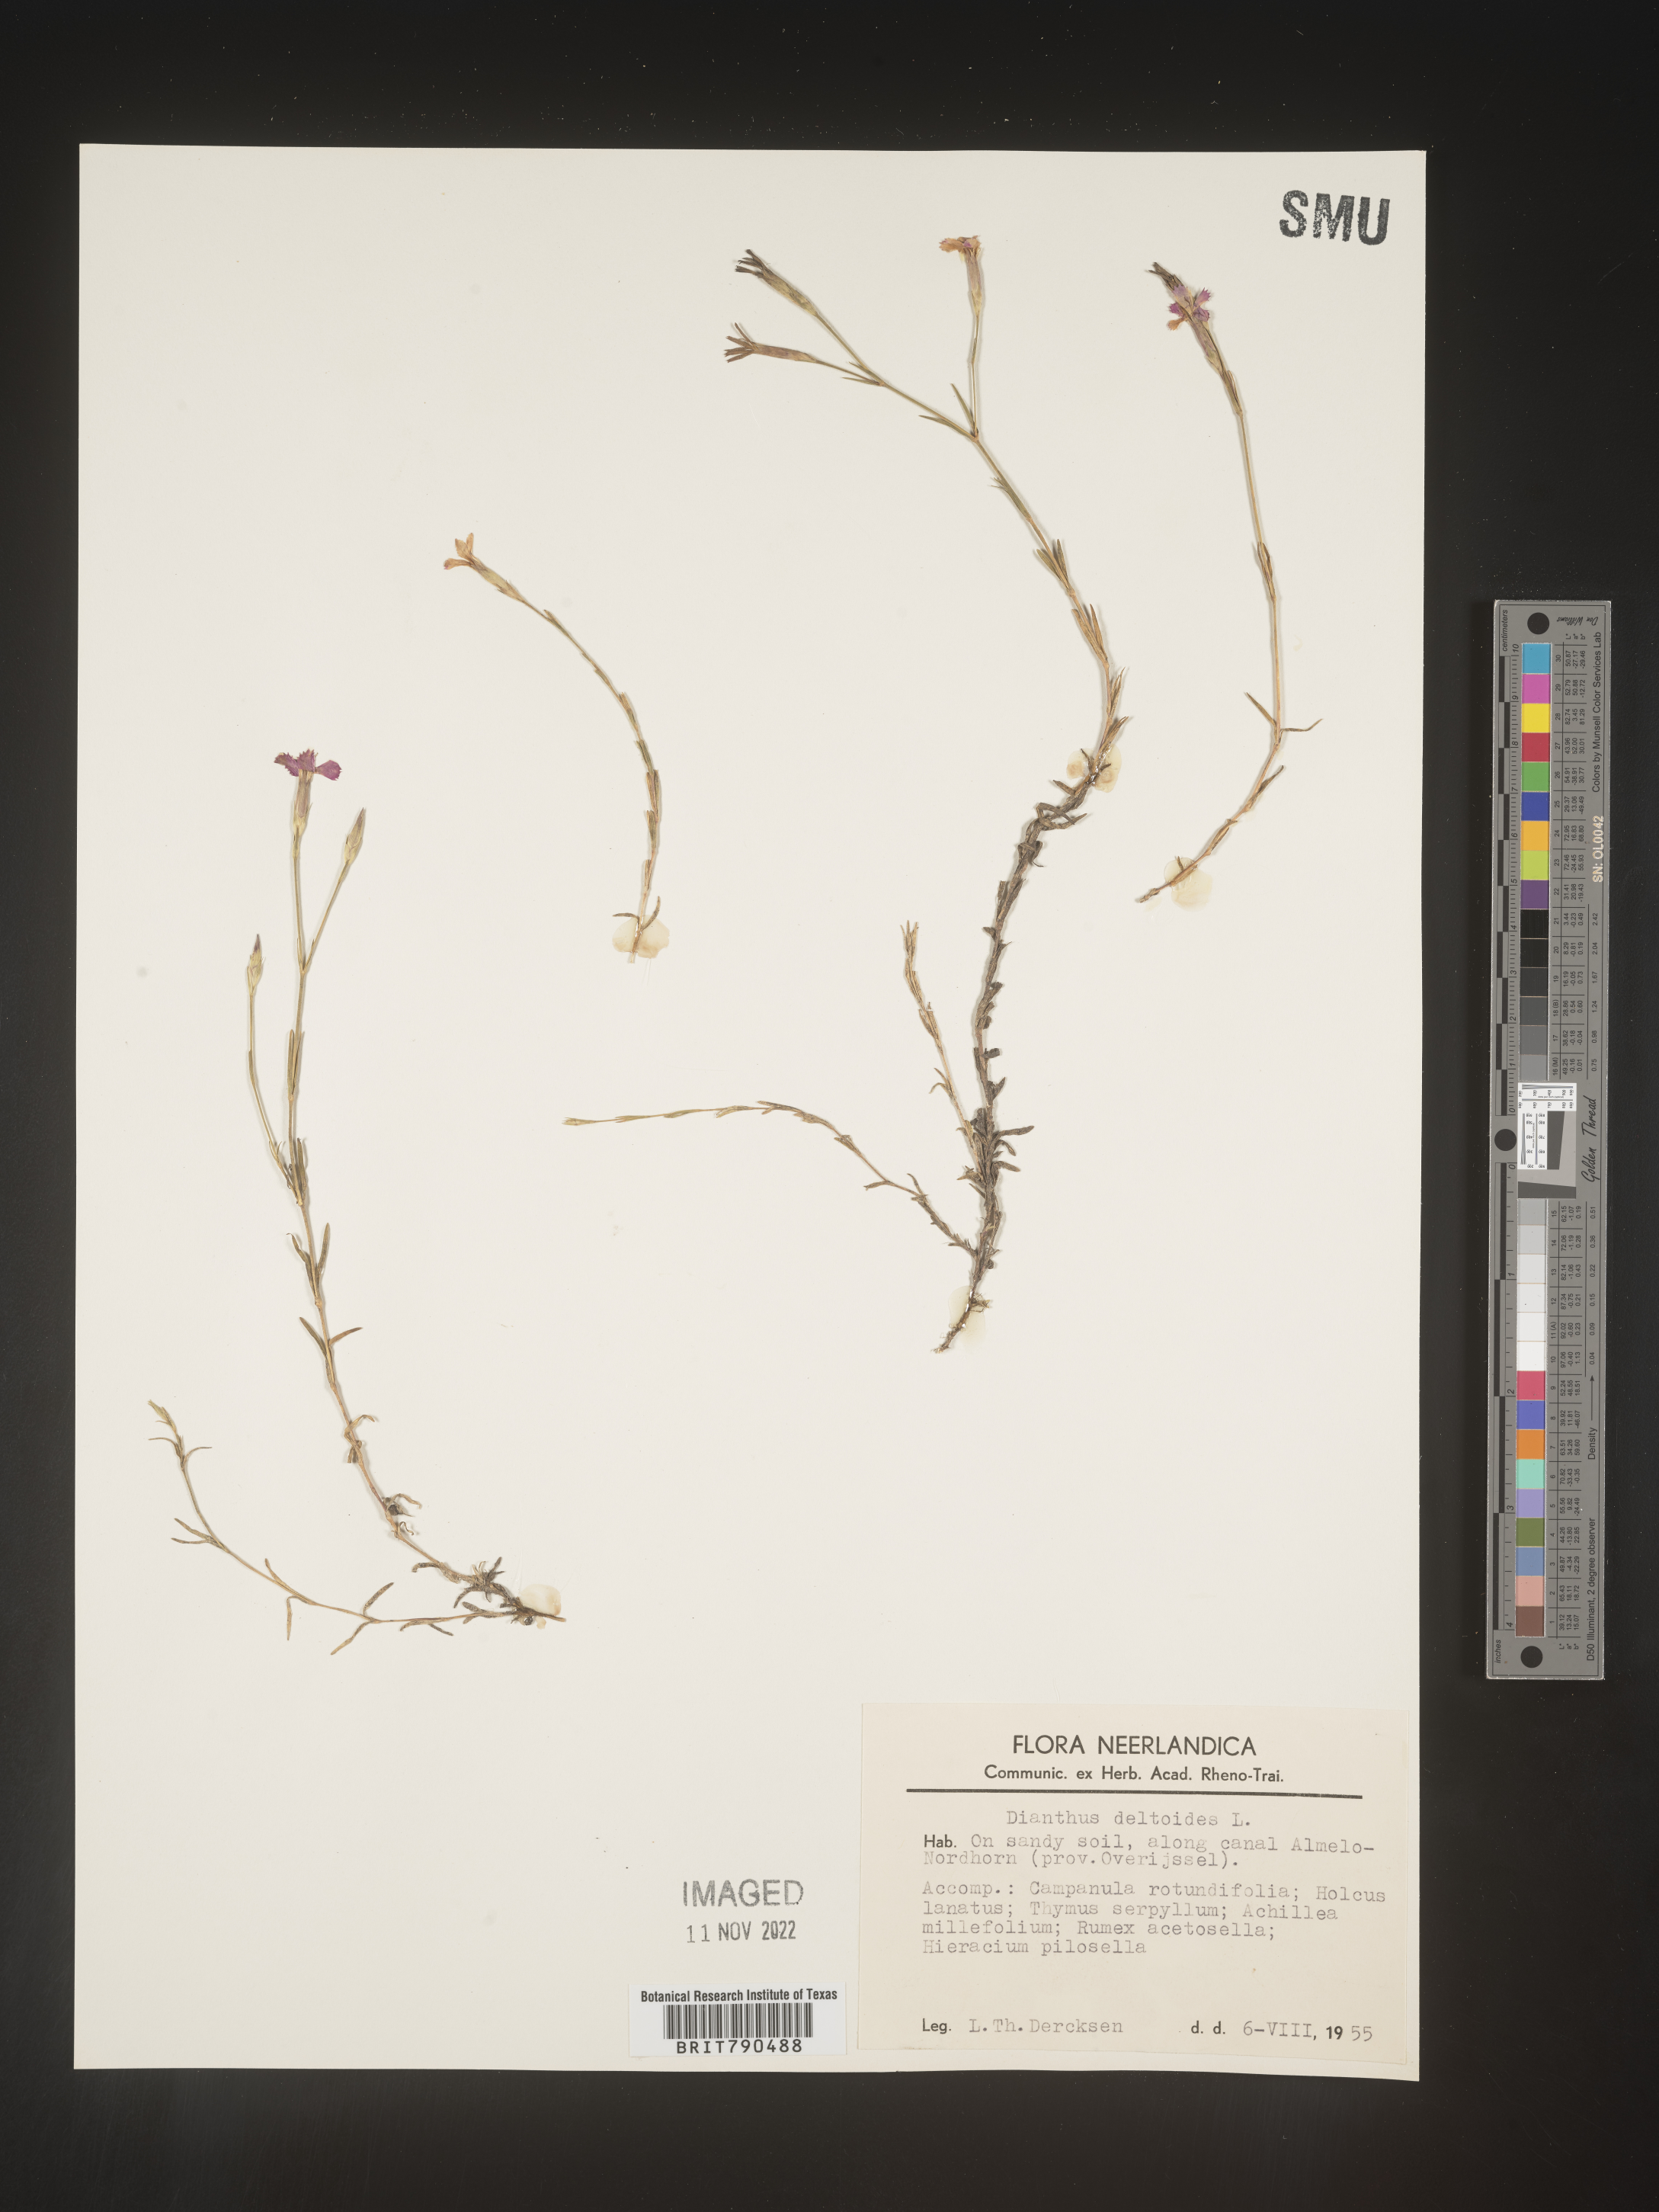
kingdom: Plantae
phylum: Tracheophyta
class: Magnoliopsida
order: Caryophyllales
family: Caryophyllaceae
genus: Dianthus
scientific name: Dianthus deltoides
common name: Maiden pink
